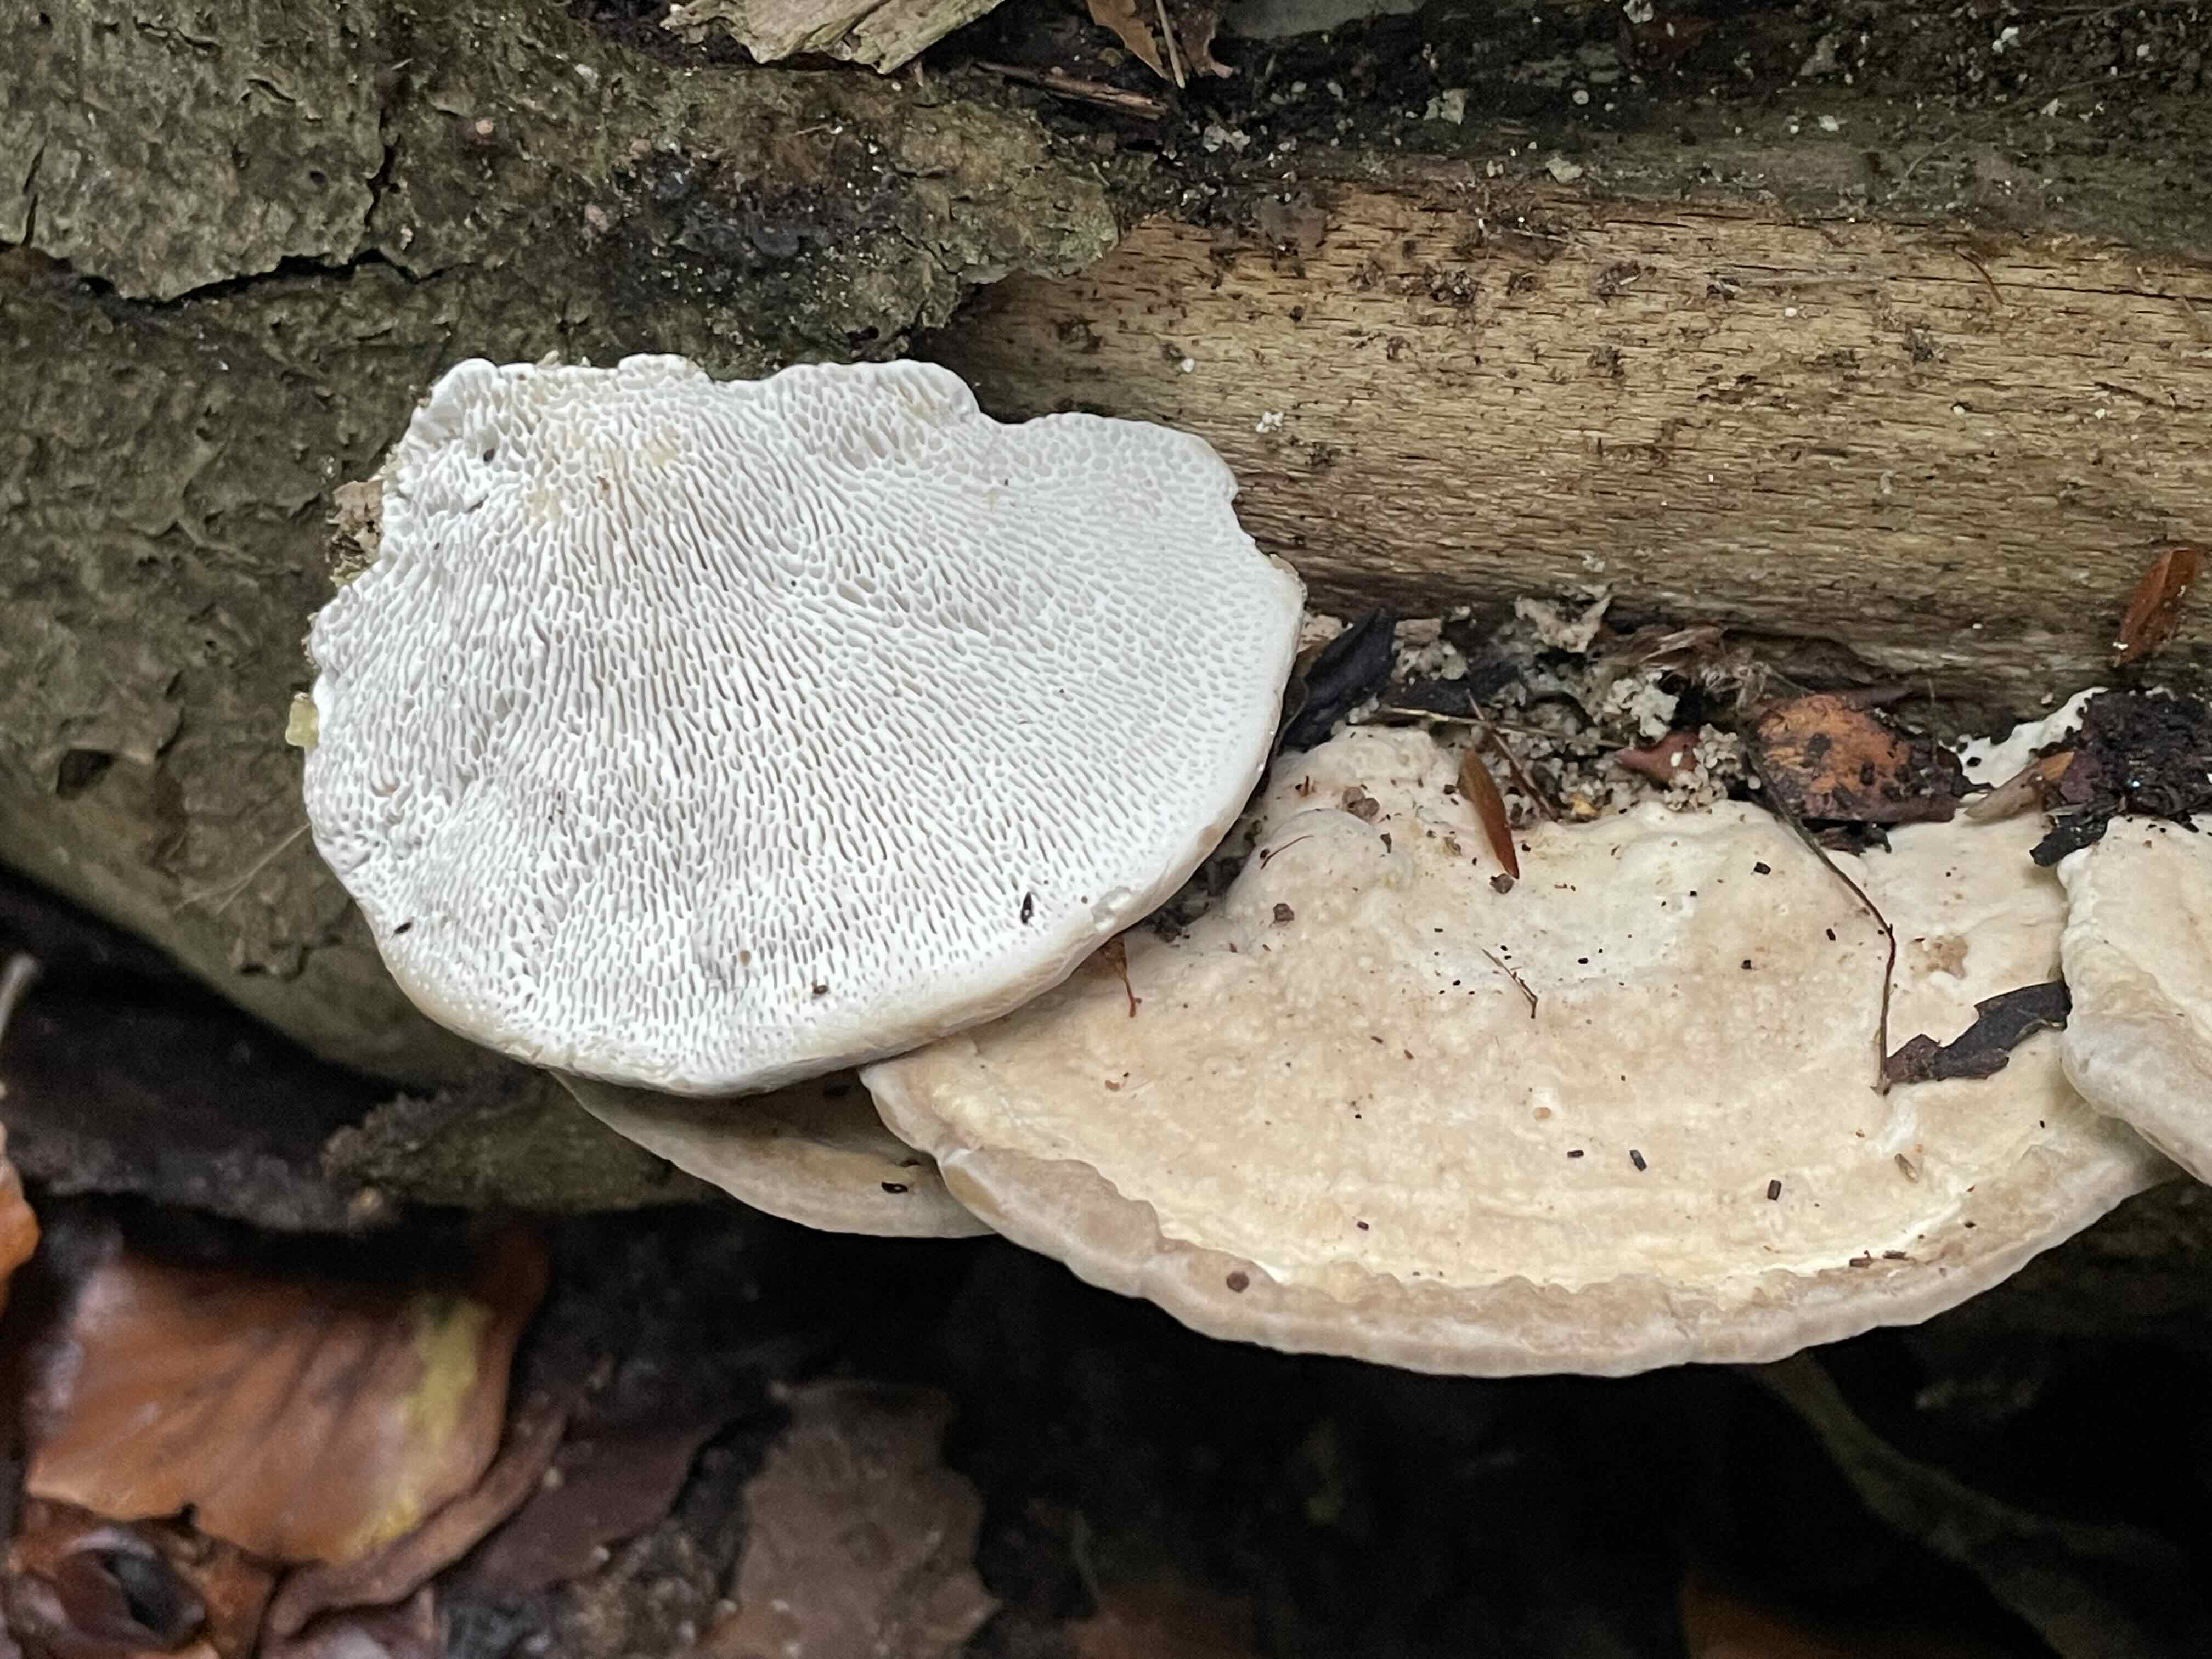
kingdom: Fungi
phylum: Basidiomycota
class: Agaricomycetes
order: Polyporales
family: Polyporaceae
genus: Trametes
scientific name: Trametes gibbosa
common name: puklet læderporesvamp
